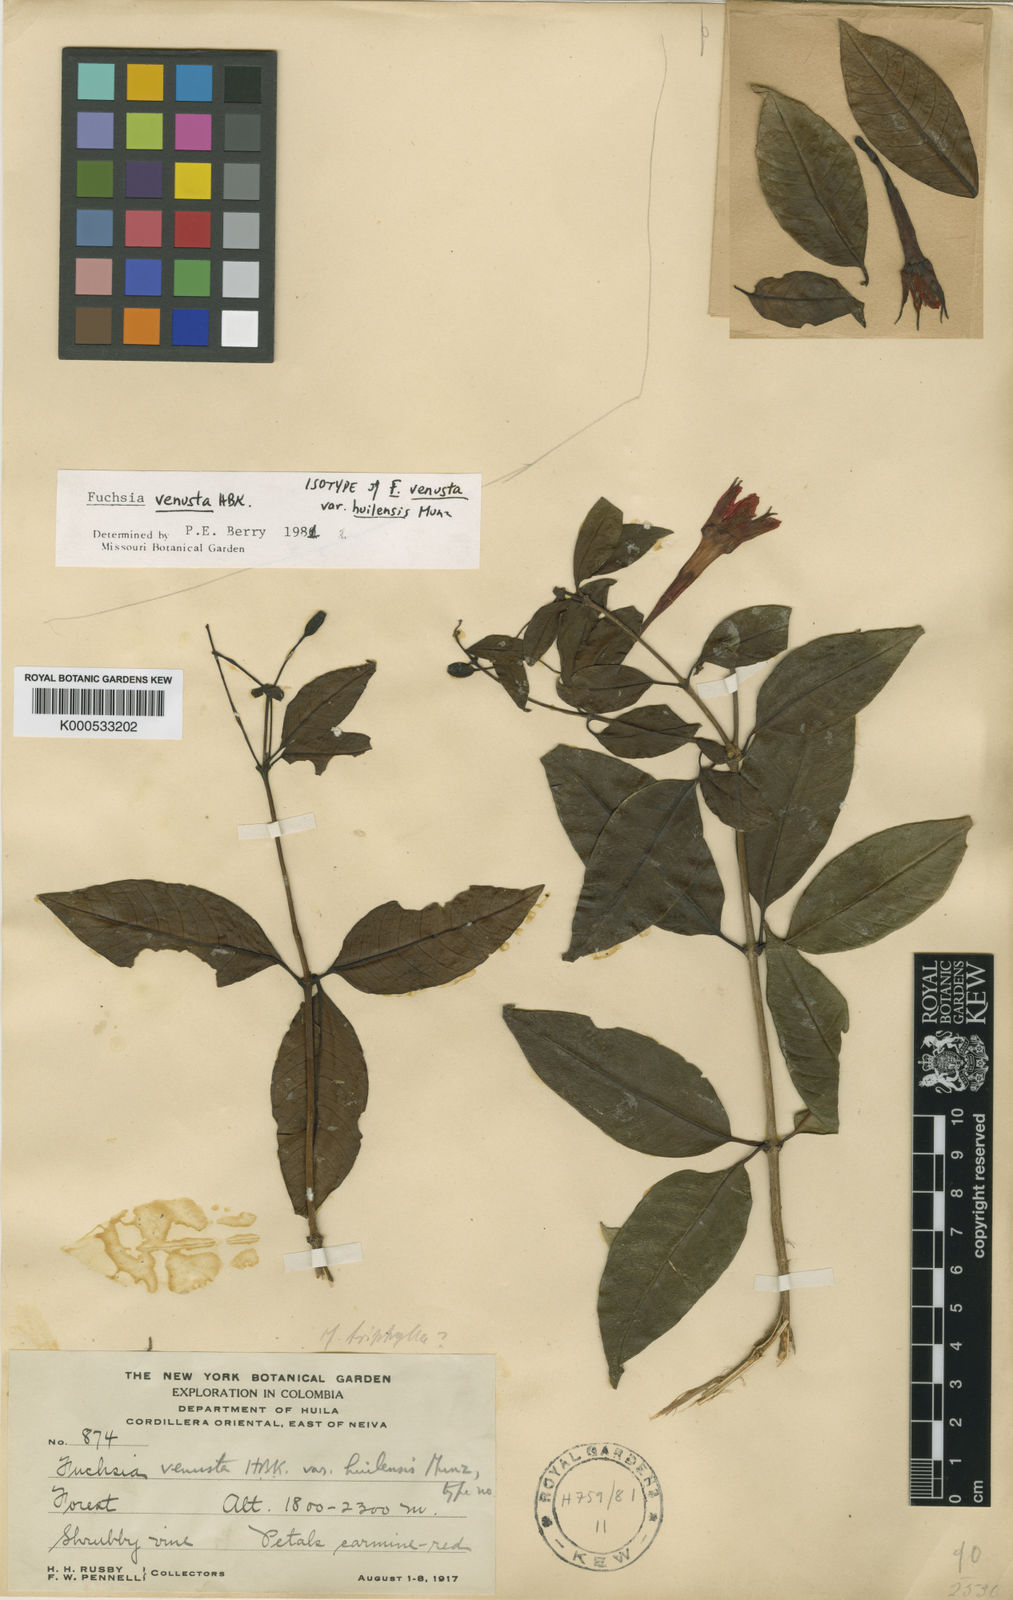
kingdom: Plantae
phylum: Tracheophyta
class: Magnoliopsida
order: Myrtales
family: Onagraceae
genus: Fuchsia
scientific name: Fuchsia venusta
